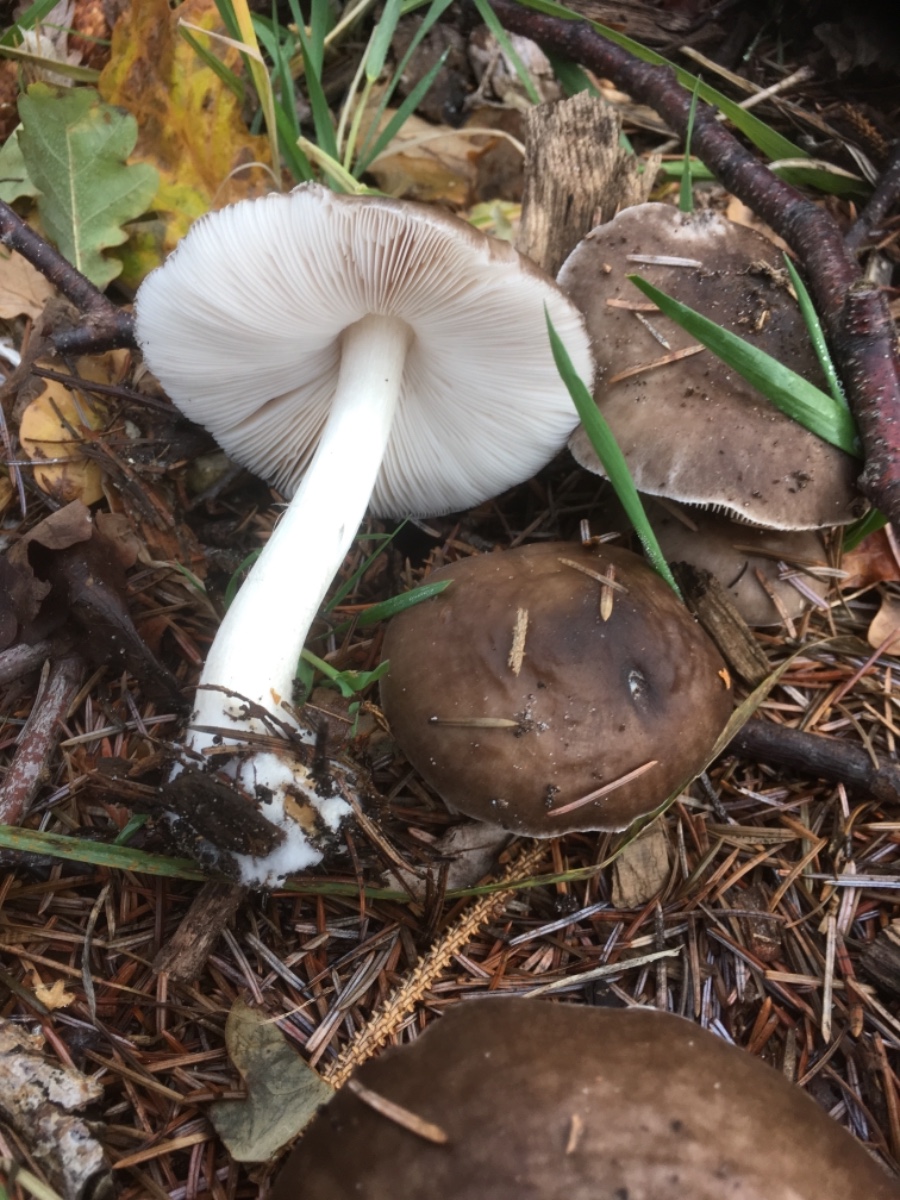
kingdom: Fungi
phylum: Basidiomycota
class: Agaricomycetes
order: Agaricales
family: Pluteaceae
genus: Pluteus
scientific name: Pluteus
